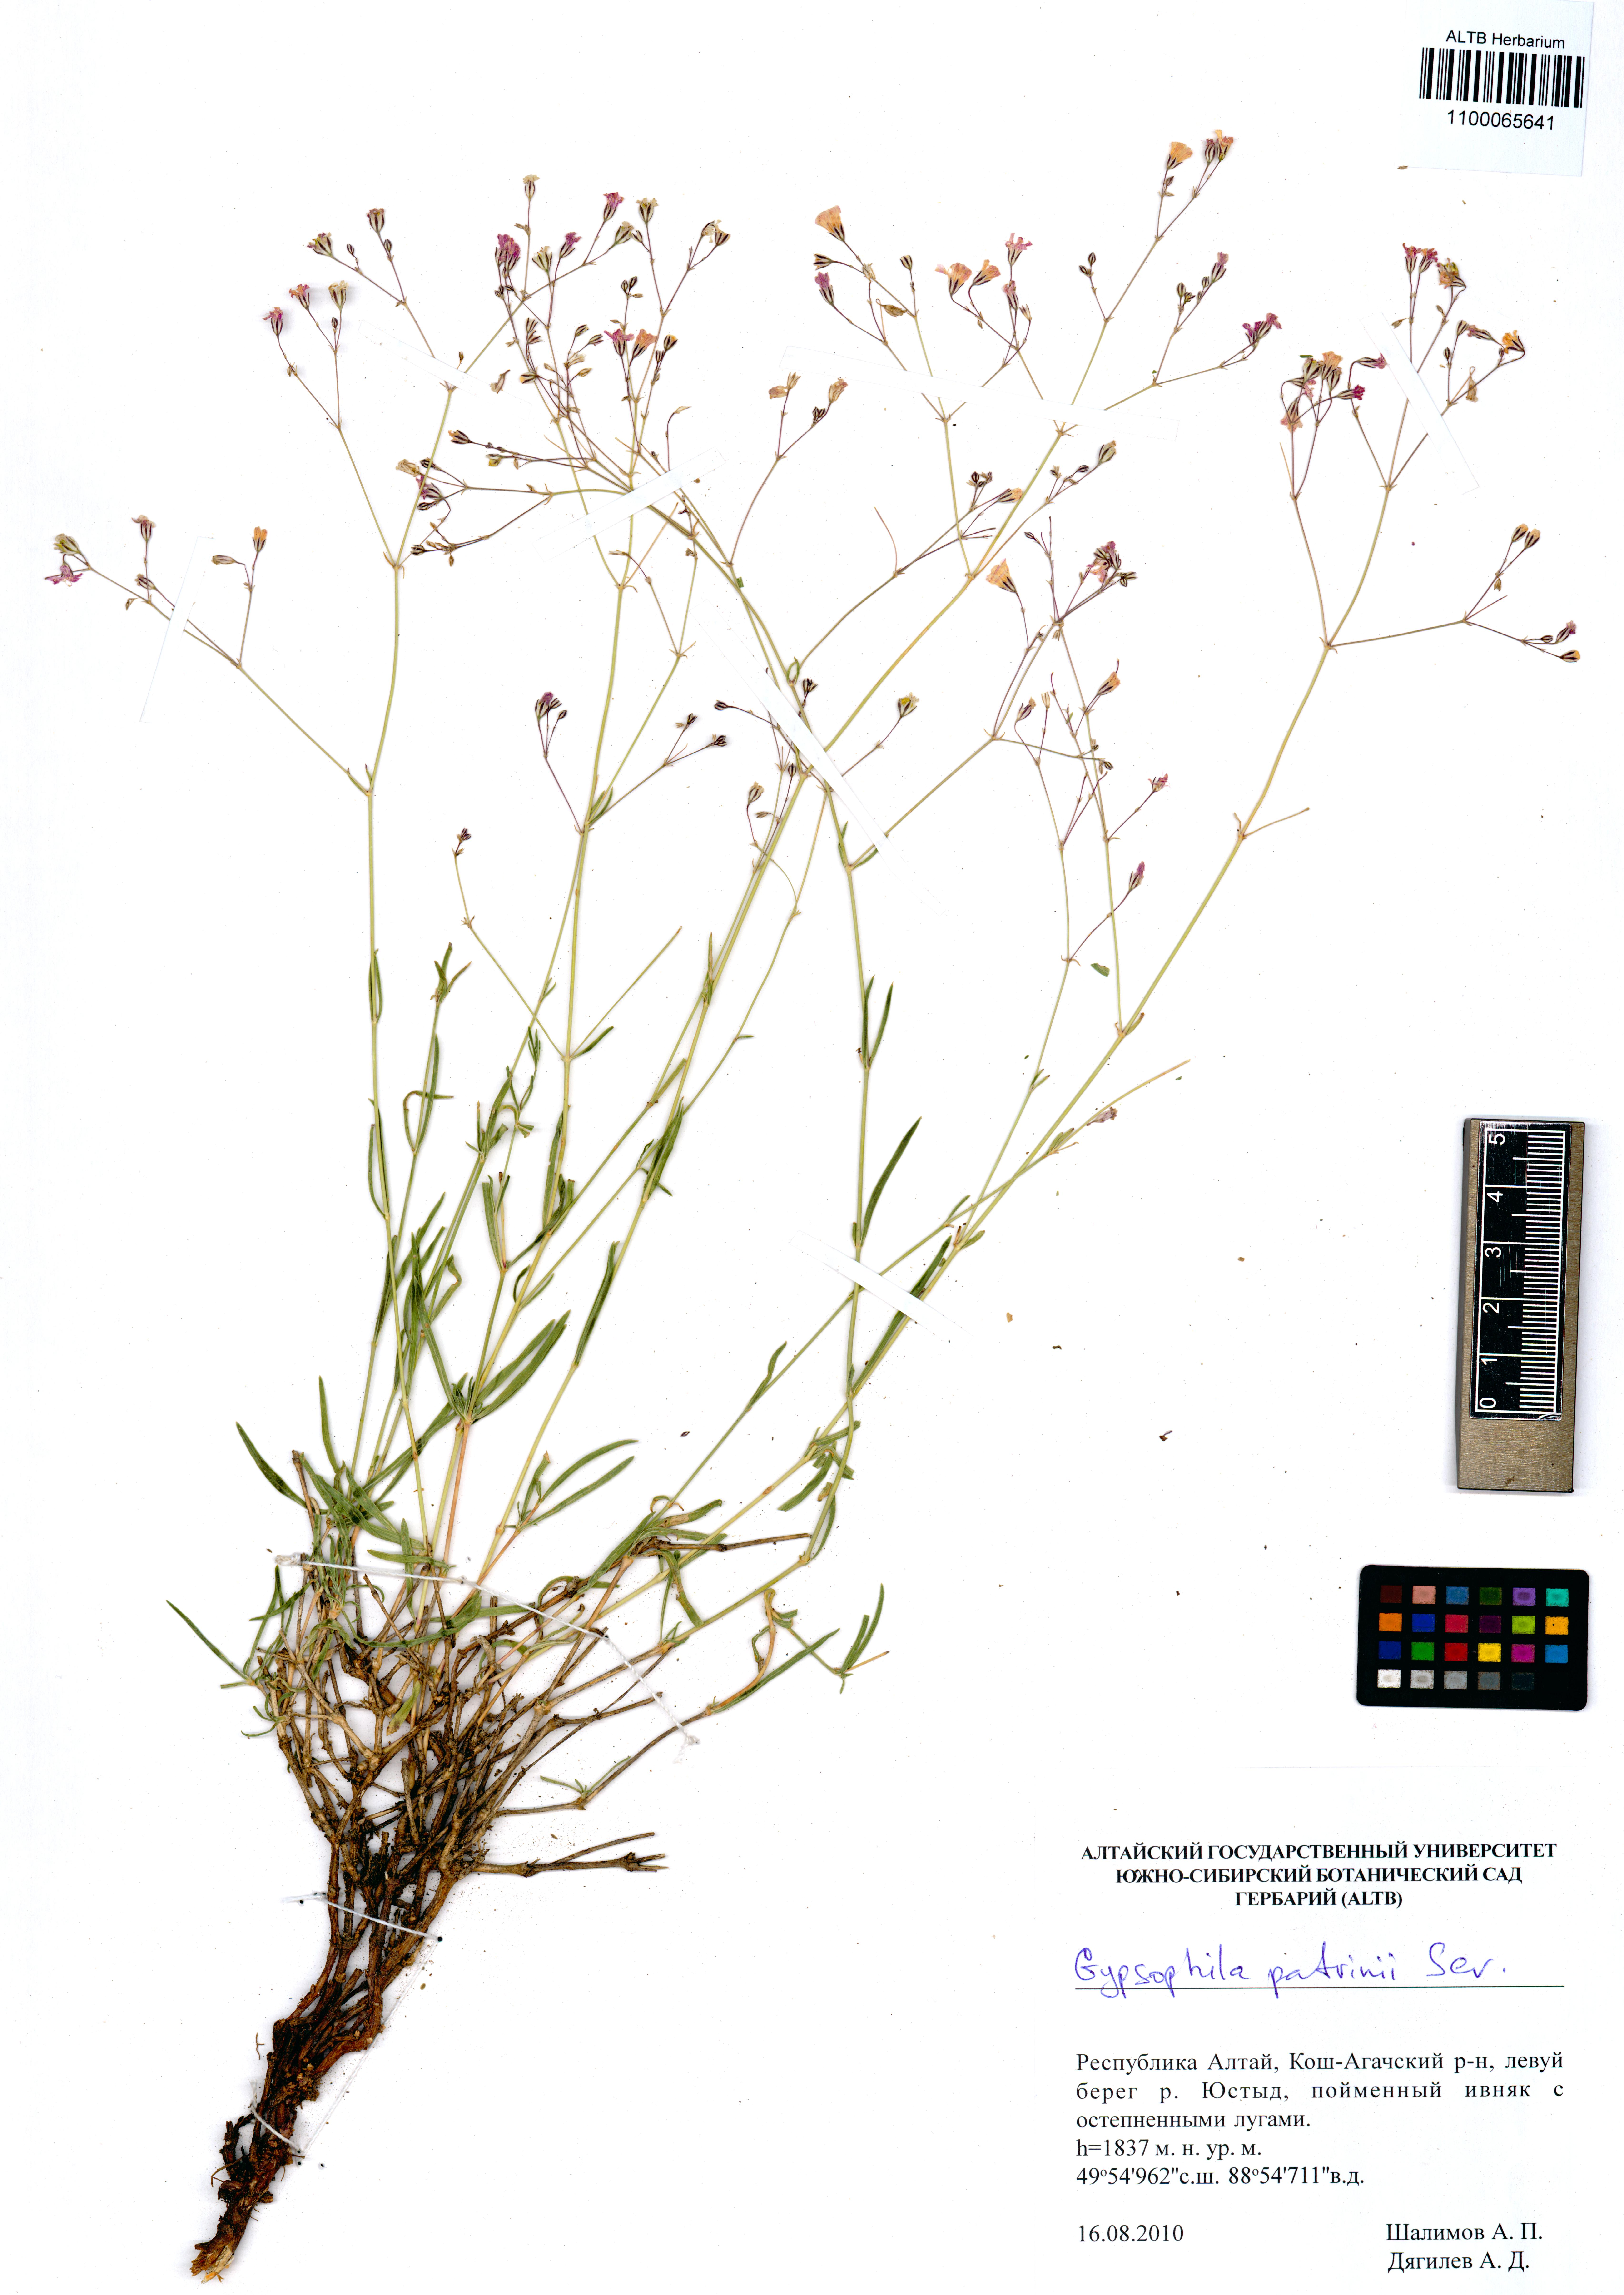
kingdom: Plantae
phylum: Tracheophyta
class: Magnoliopsida
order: Caryophyllales
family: Caryophyllaceae
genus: Gypsophila
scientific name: Gypsophila patrinii
